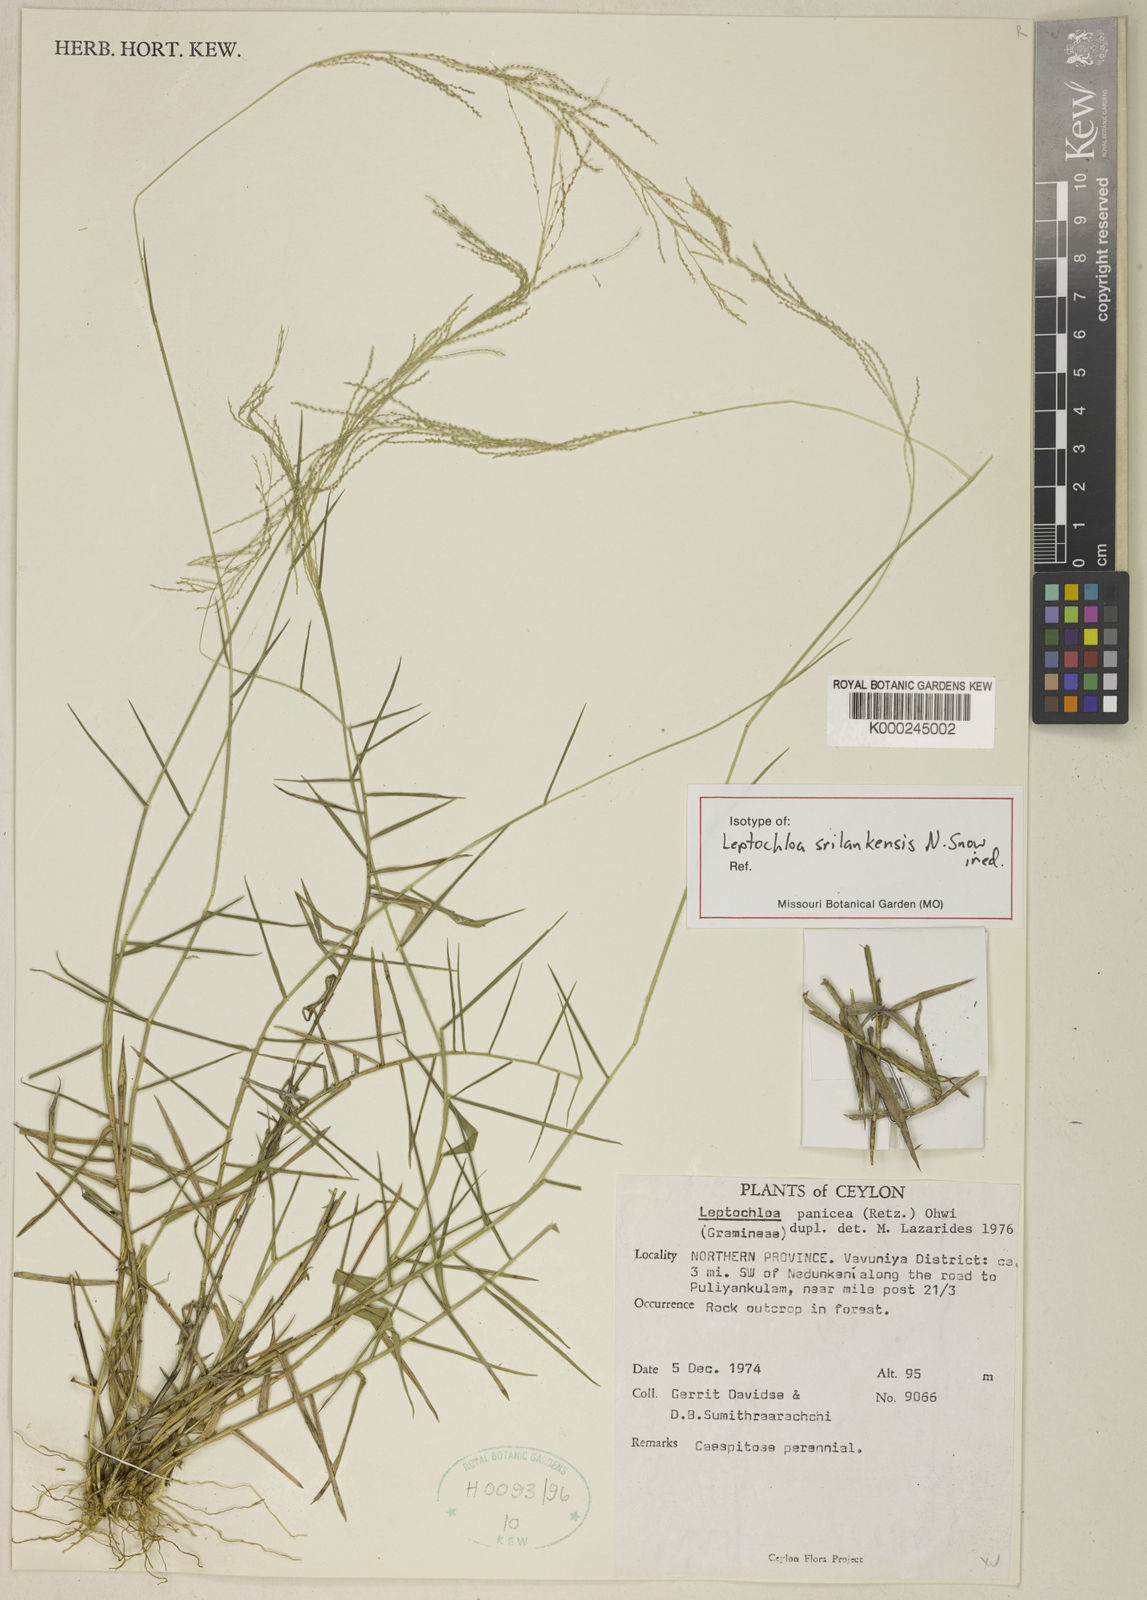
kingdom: Plantae
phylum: Tracheophyta
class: Liliopsida
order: Poales
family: Poaceae
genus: Leptochloa
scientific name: Leptochloa srilankensis
